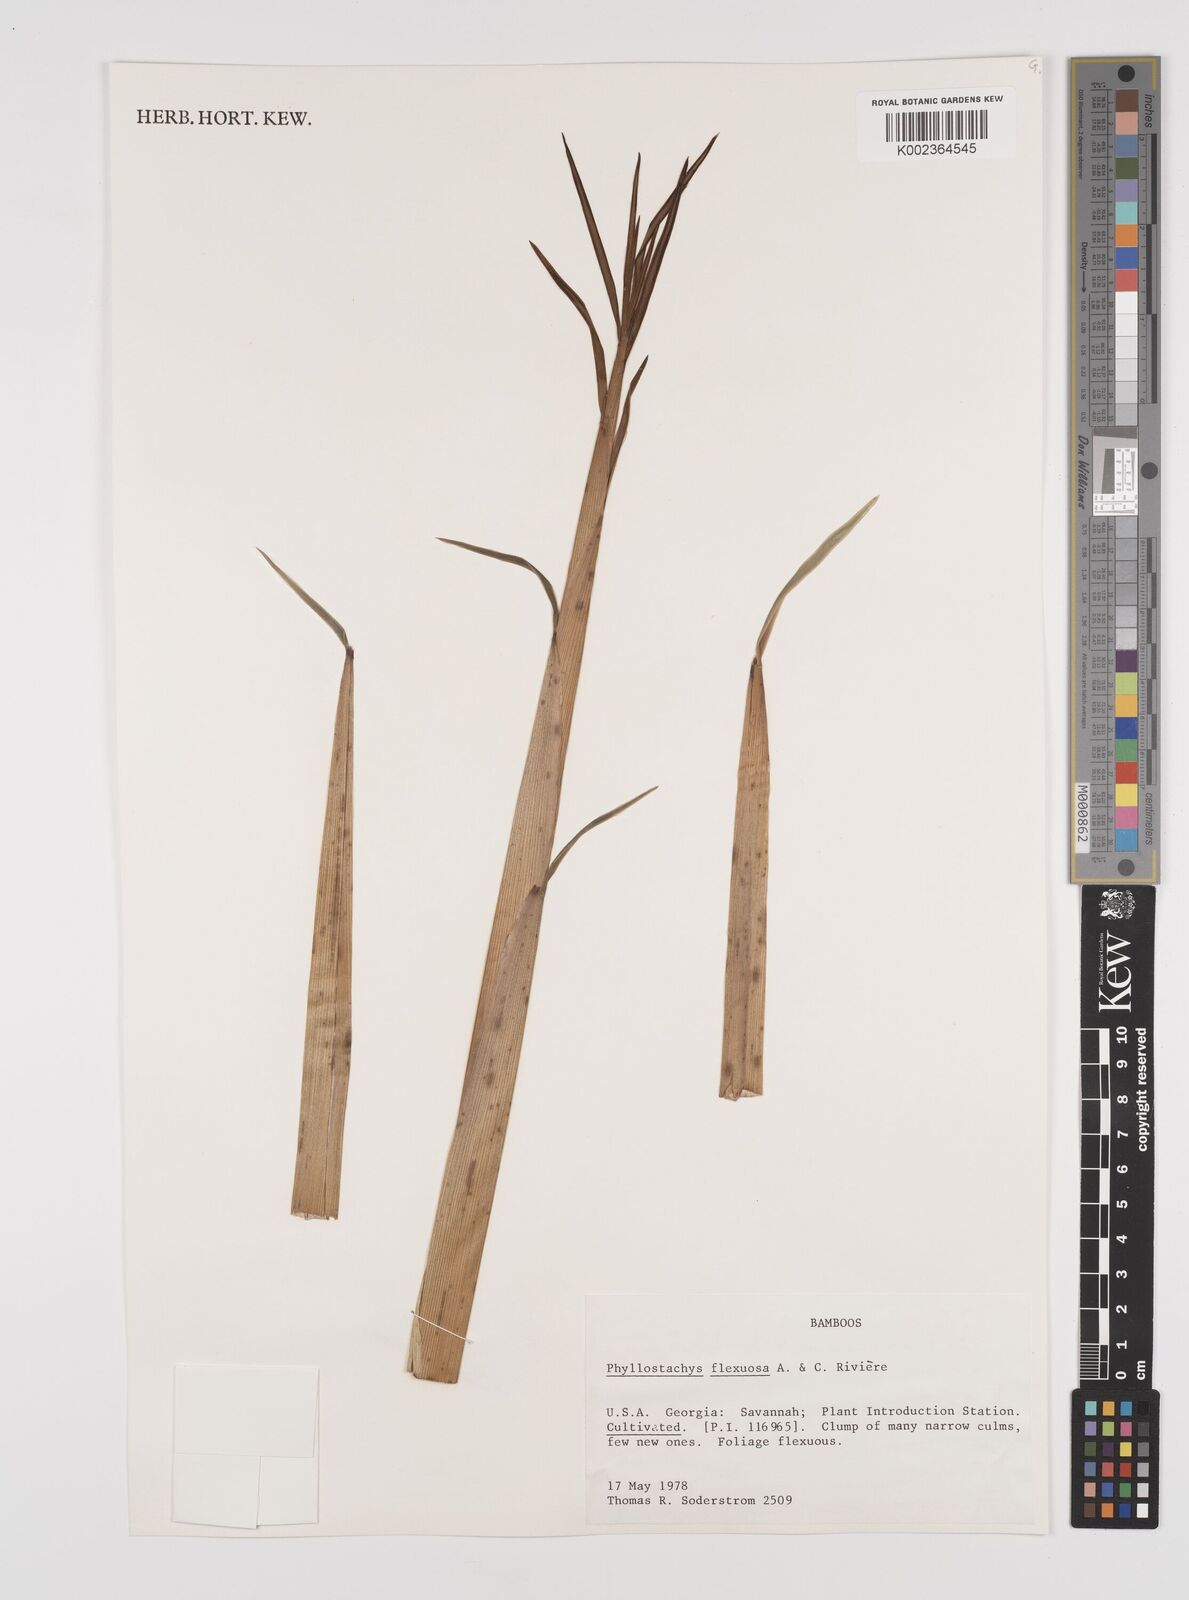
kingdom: Plantae
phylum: Tracheophyta
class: Liliopsida
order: Poales
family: Poaceae
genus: Phyllostachys
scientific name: Phyllostachys flexuosa
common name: Drooping timber bamboo
